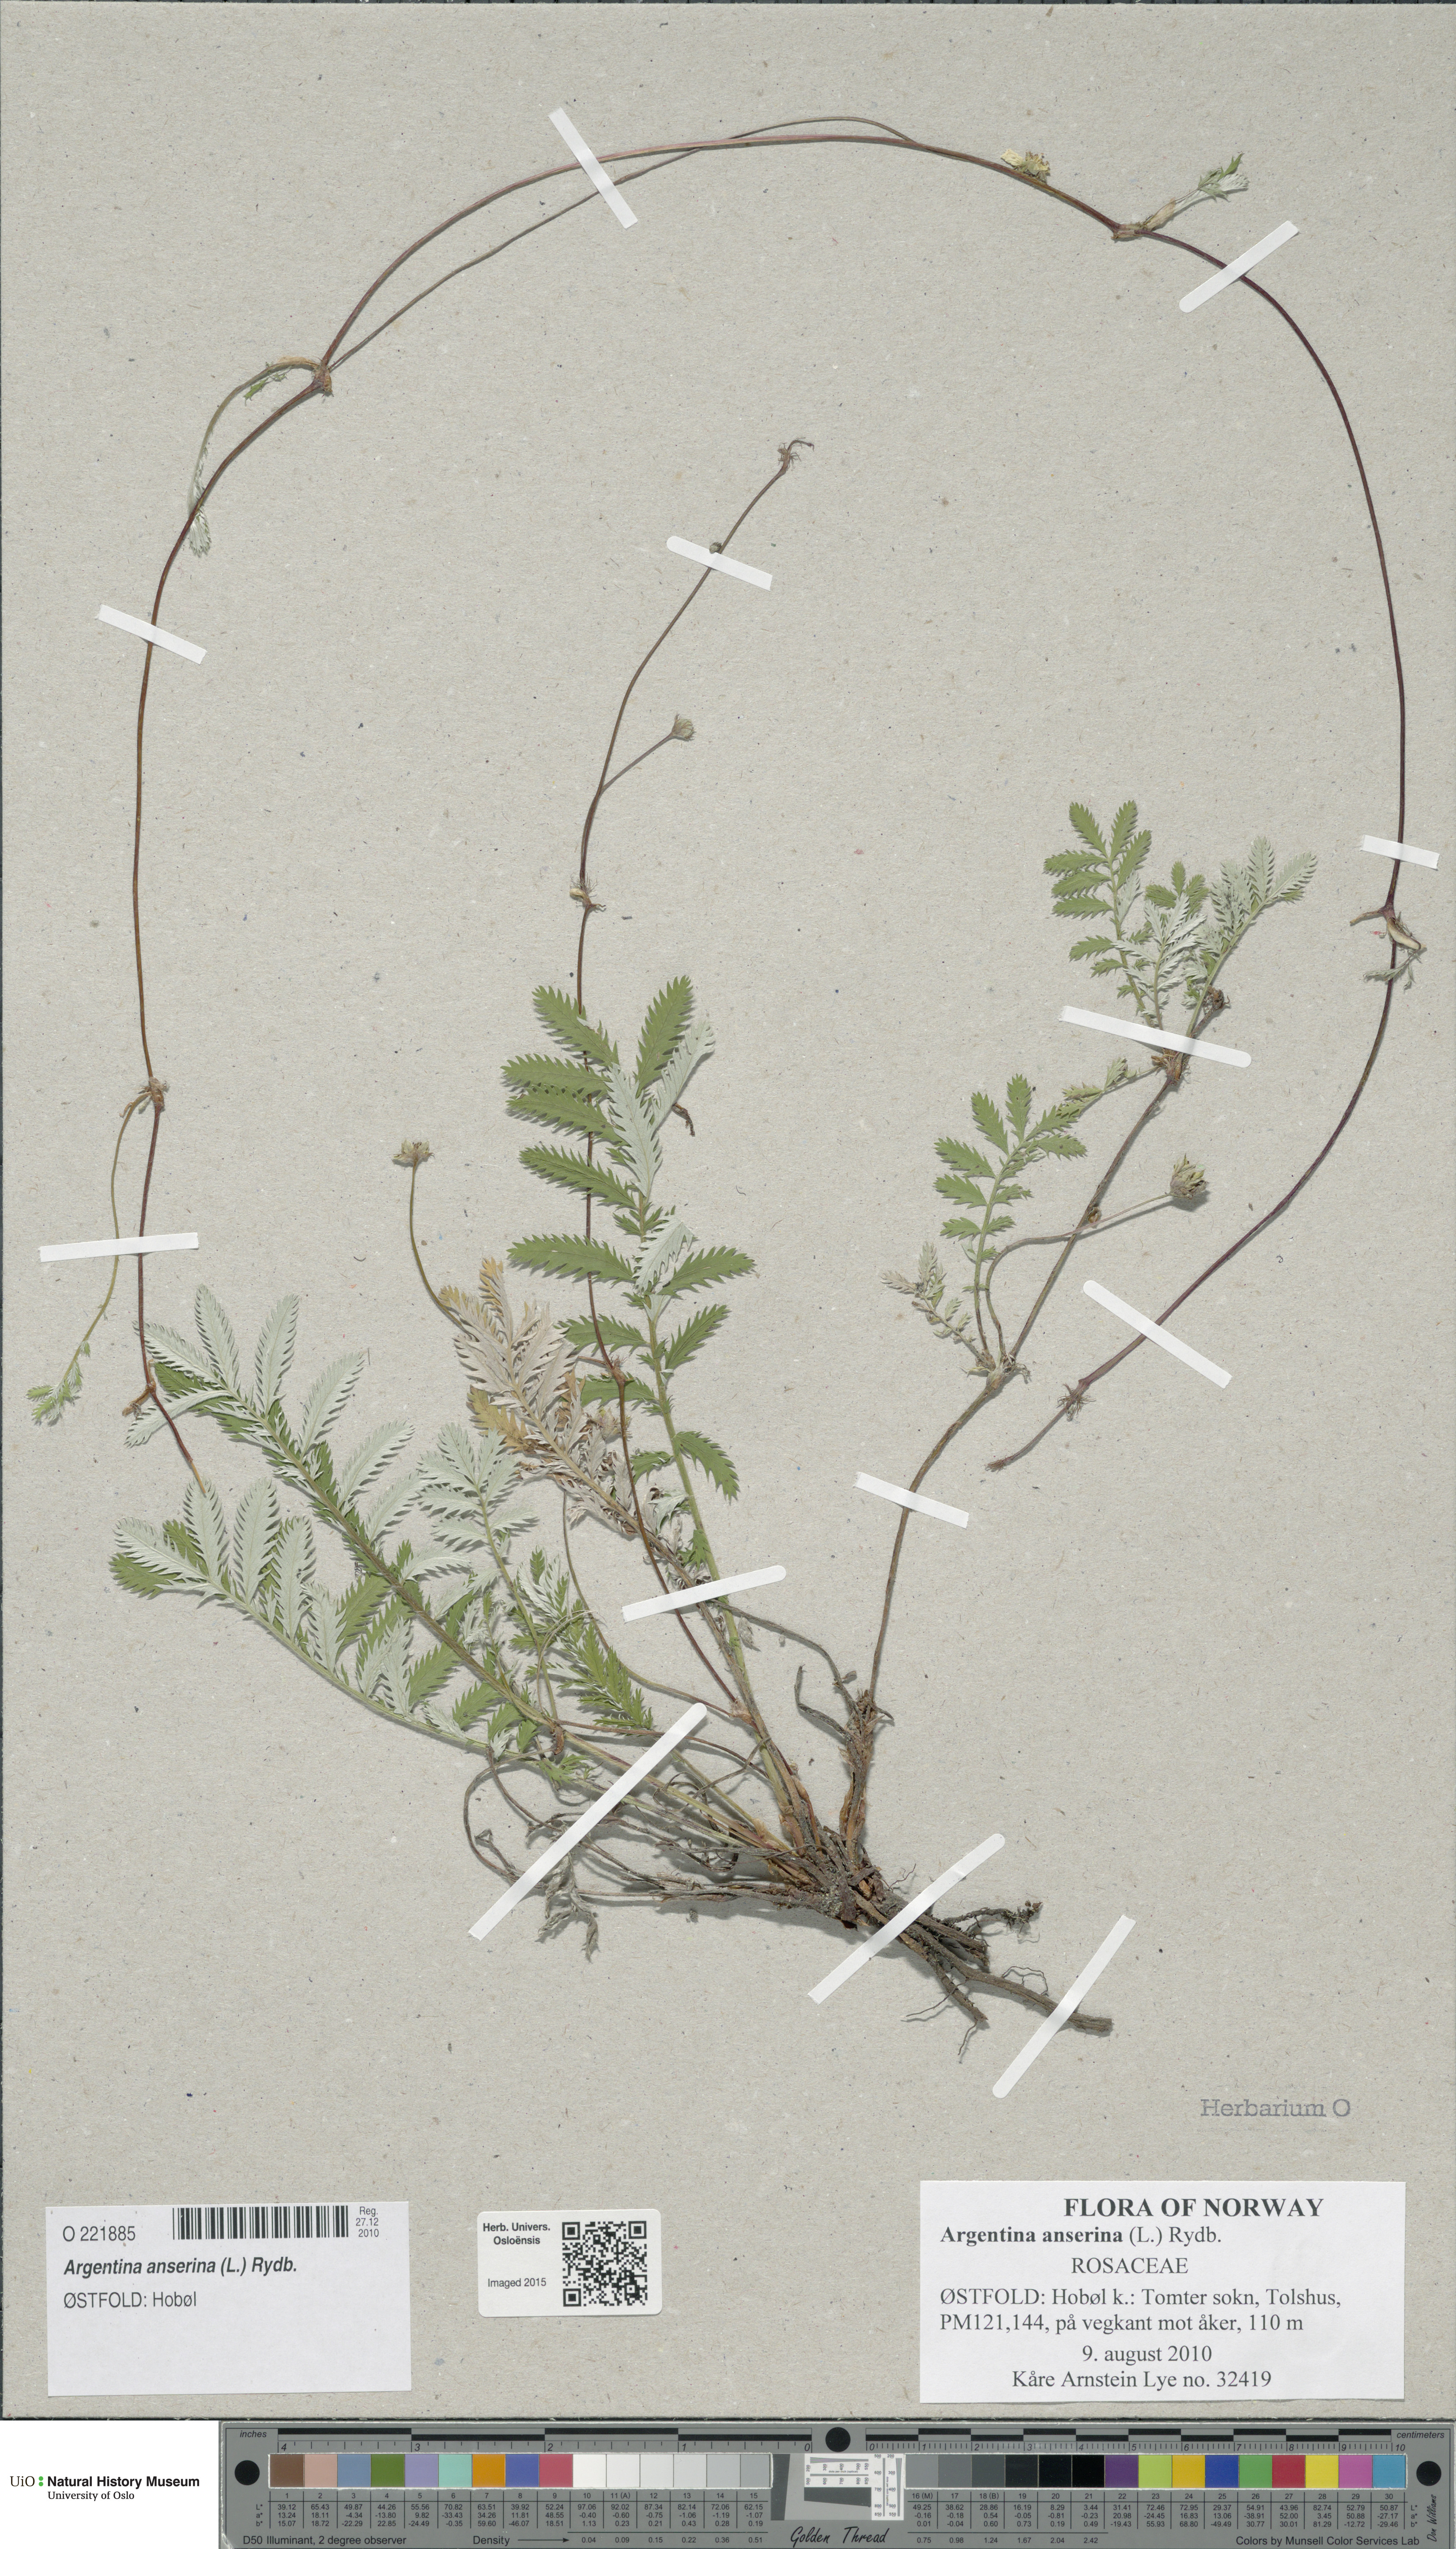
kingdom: Plantae
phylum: Tracheophyta
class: Magnoliopsida
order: Rosales
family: Rosaceae
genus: Argentina
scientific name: Argentina anserina
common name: Common silverweed
